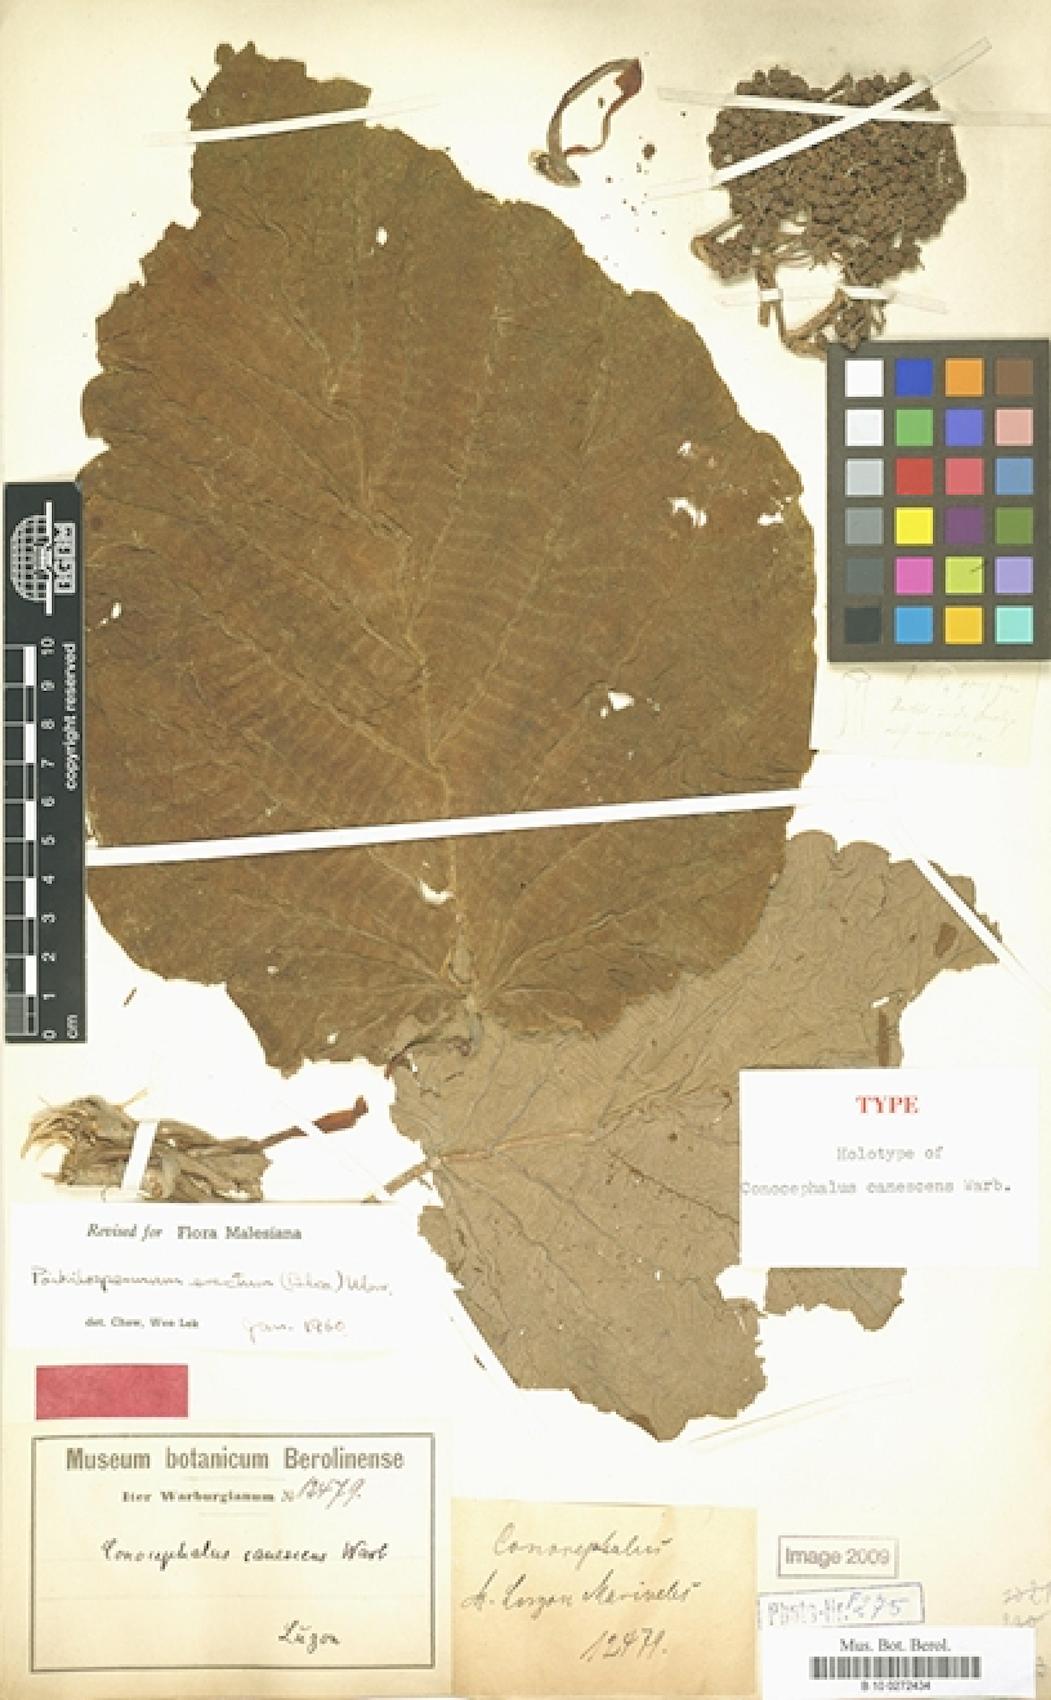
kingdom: Plantae
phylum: Tracheophyta
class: Magnoliopsida
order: Rosales
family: Urticaceae
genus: Poikilospermum
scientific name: Poikilospermum erectum
